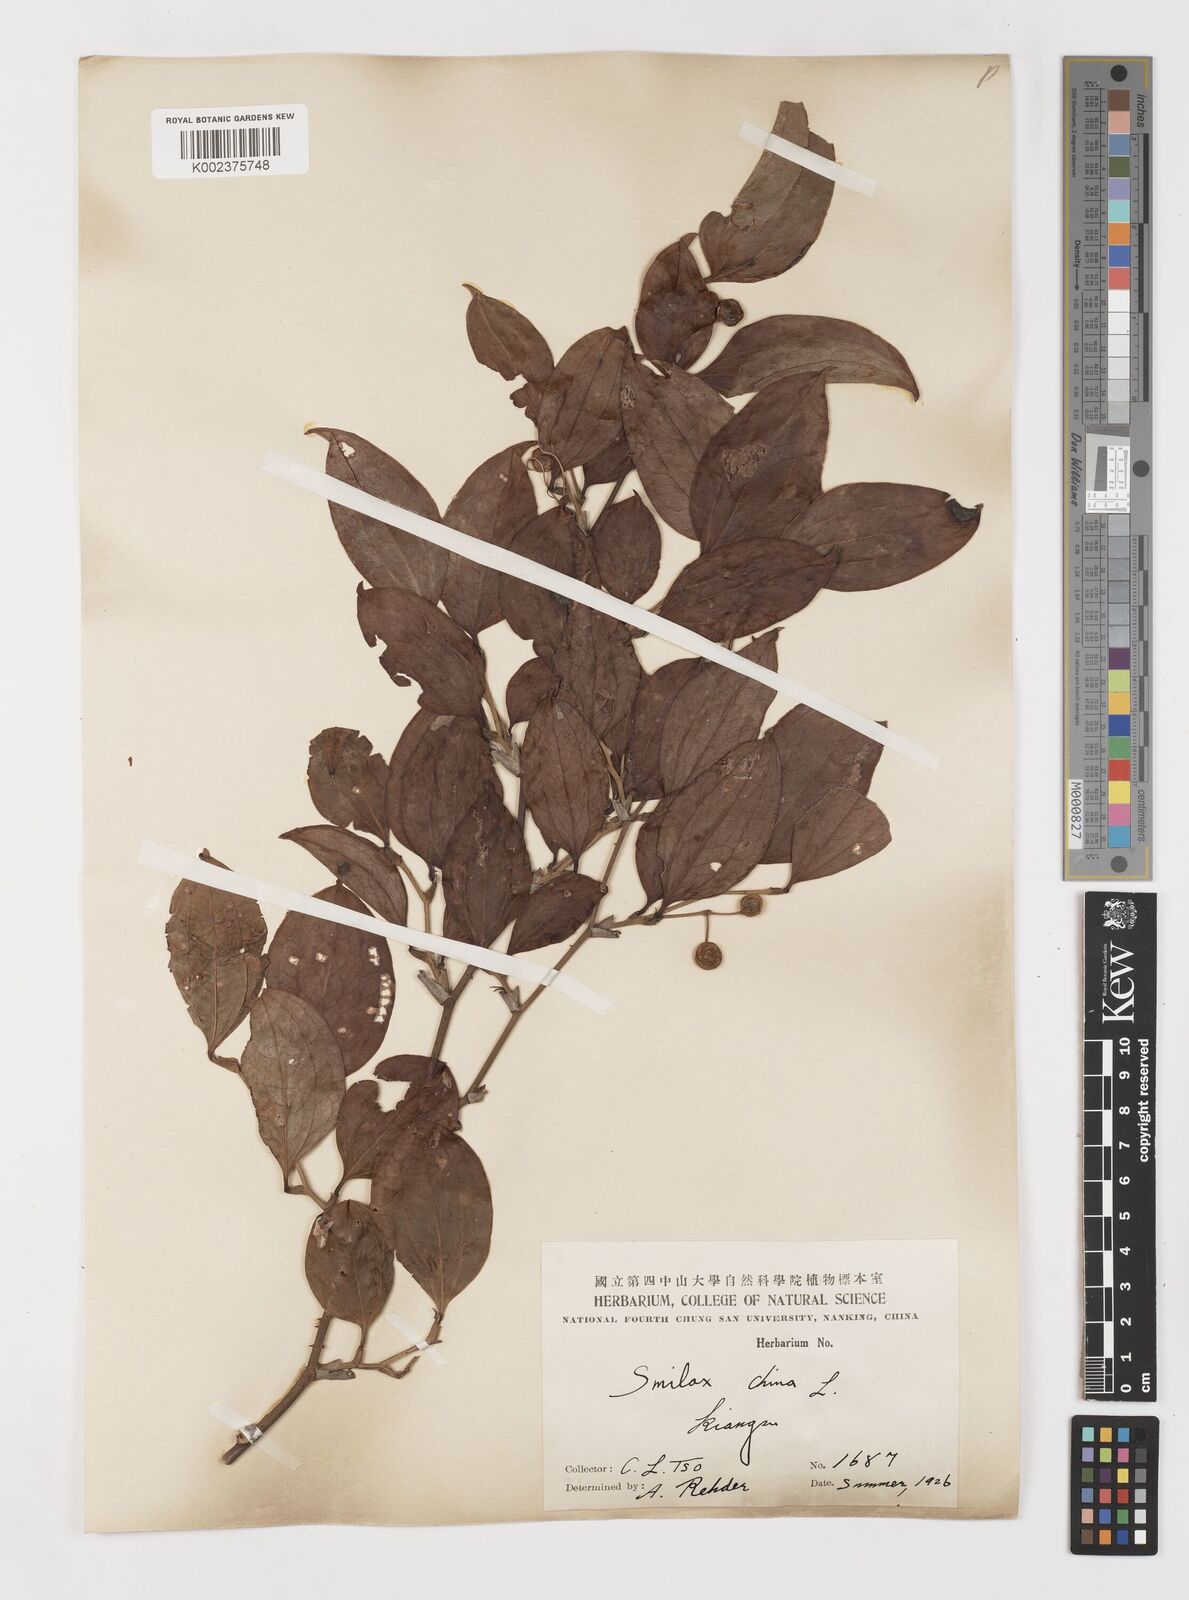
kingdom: Plantae
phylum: Tracheophyta
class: Liliopsida
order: Liliales
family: Smilacaceae
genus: Smilax
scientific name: Smilax china
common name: Chinaroot
